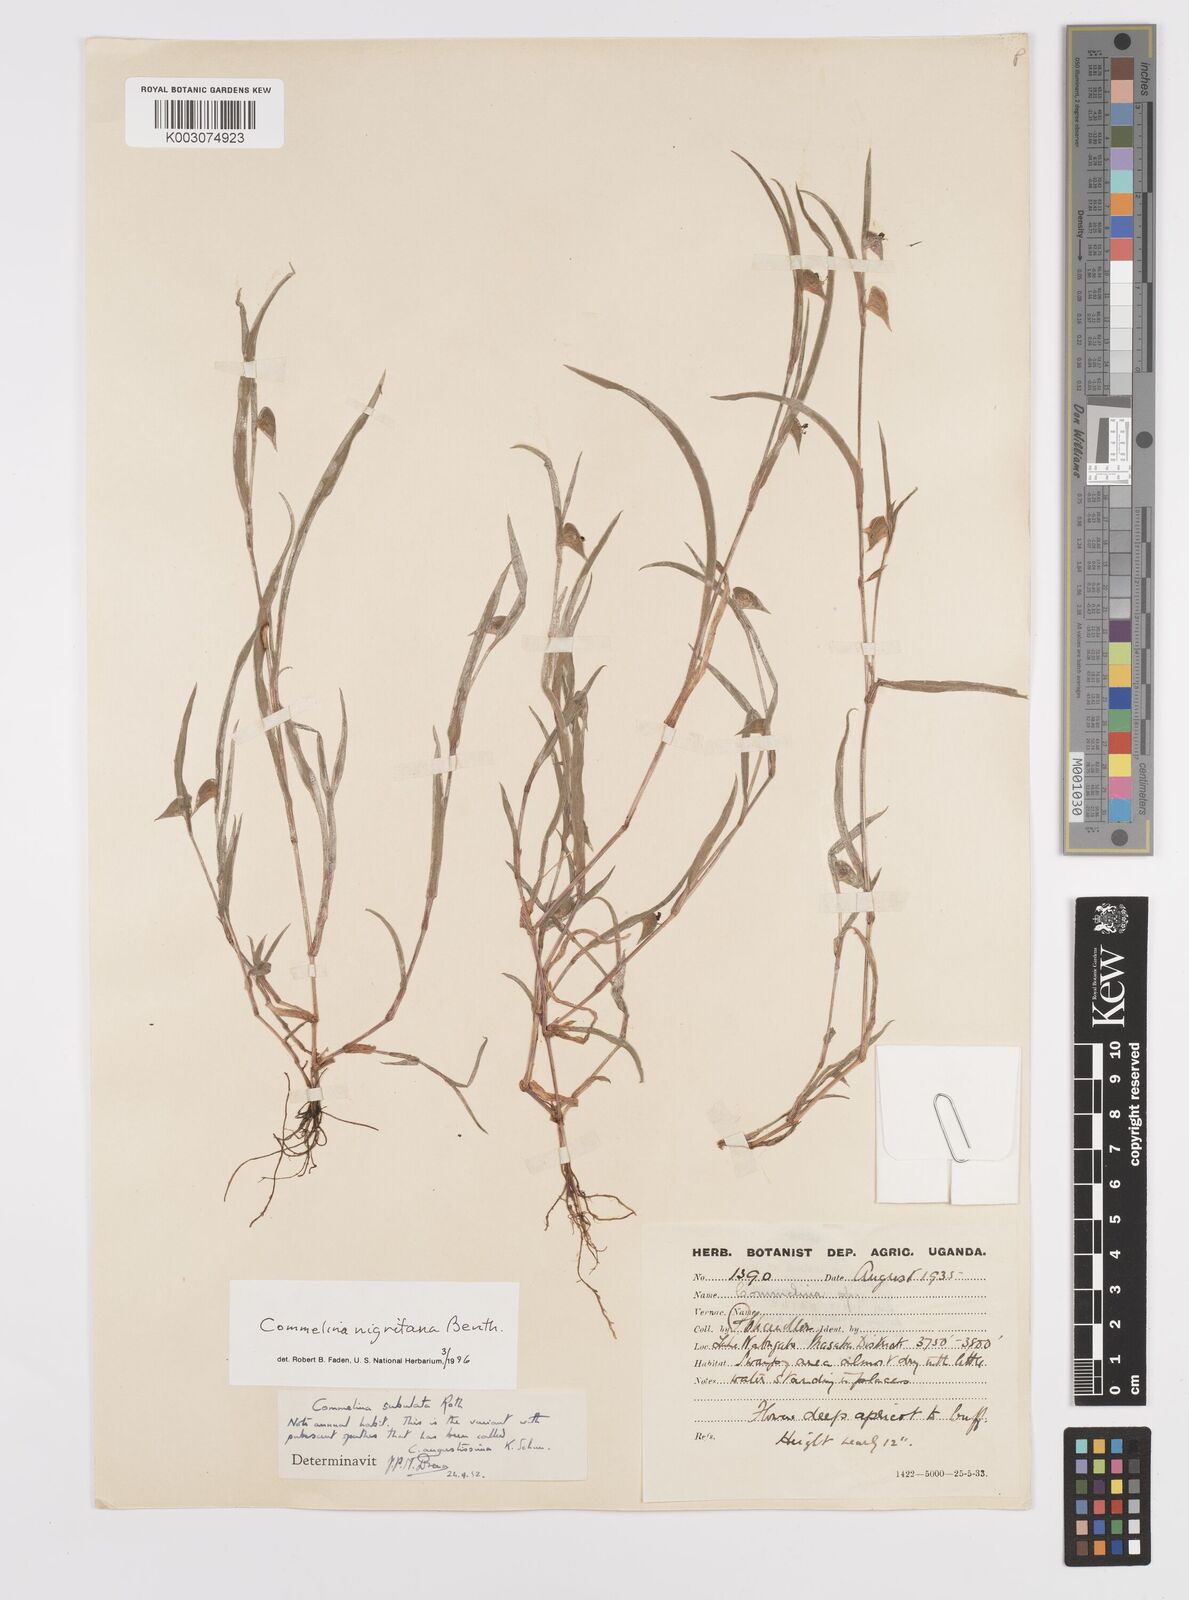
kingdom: Plantae
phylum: Tracheophyta
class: Liliopsida
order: Commelinales
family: Commelinaceae
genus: Commelina
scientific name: Commelina nigritana
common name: African dayflower
